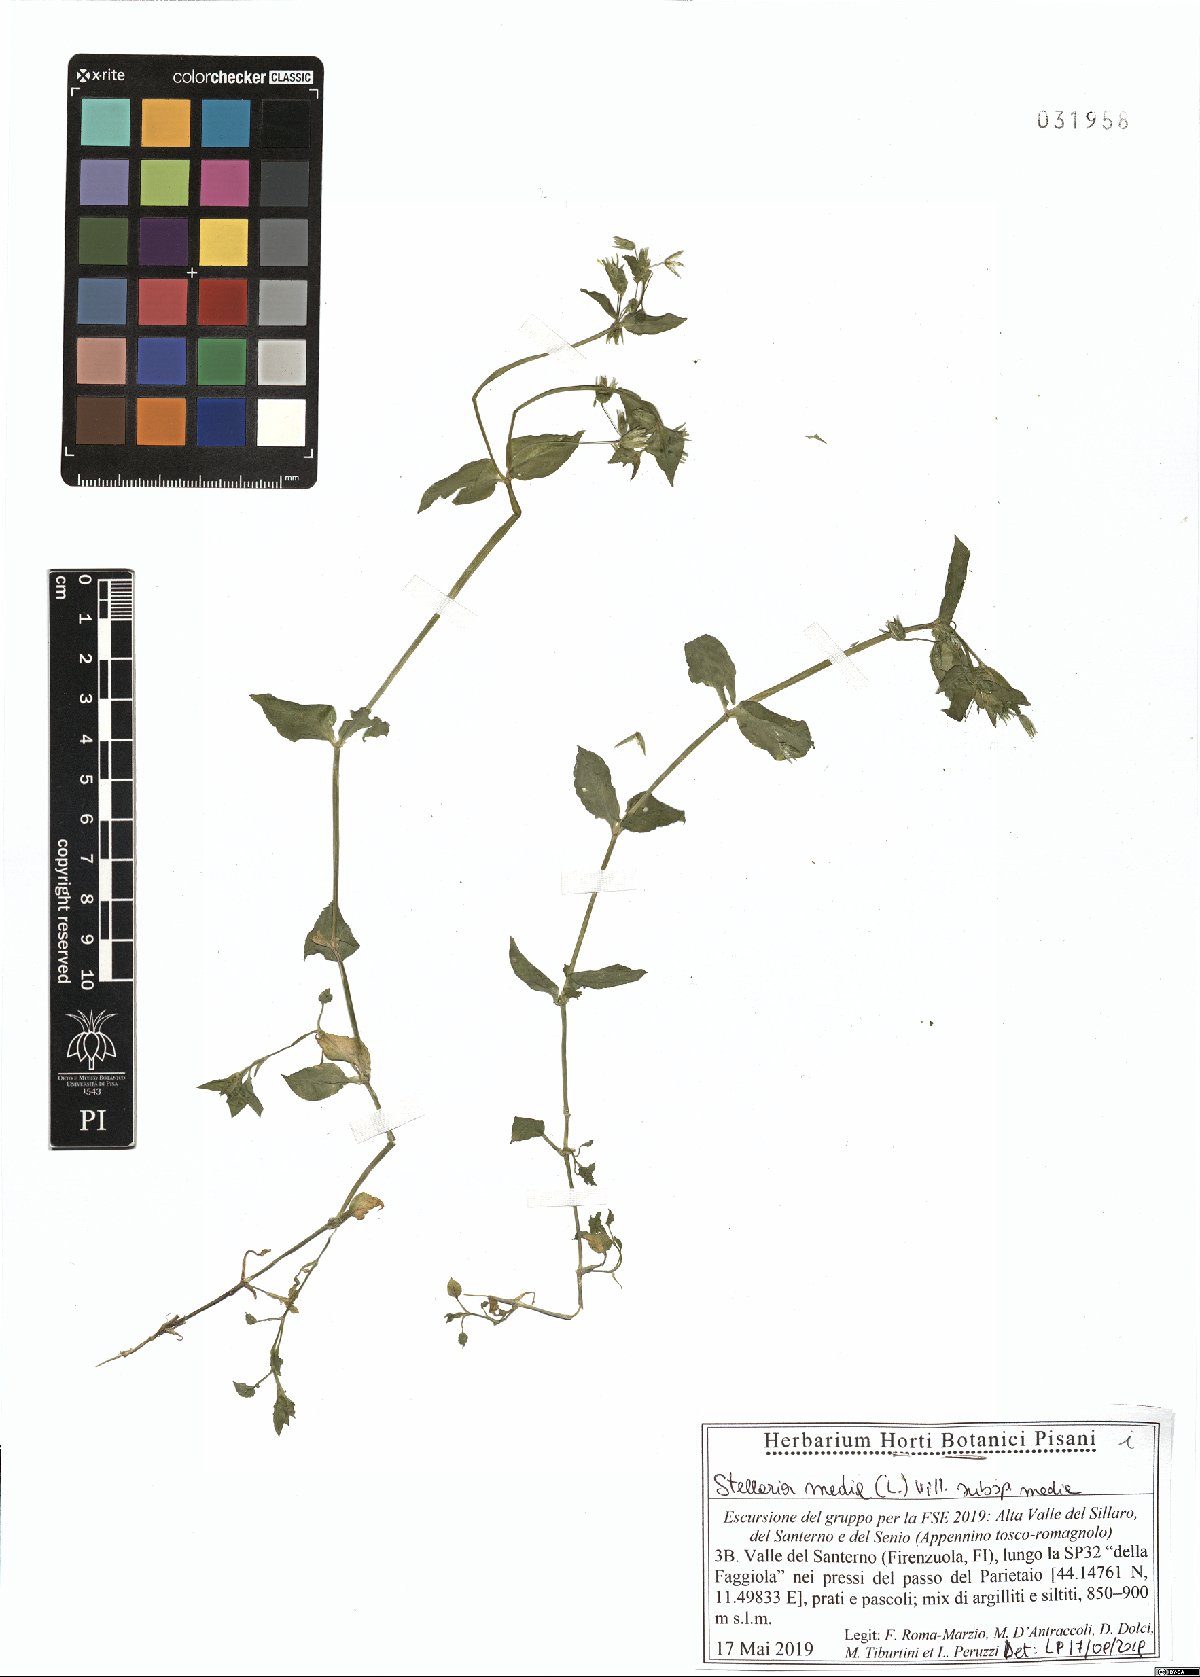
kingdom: Plantae
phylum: Tracheophyta
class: Magnoliopsida
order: Caryophyllales
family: Caryophyllaceae
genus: Stellaria
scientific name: Stellaria media
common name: Common chickweed
